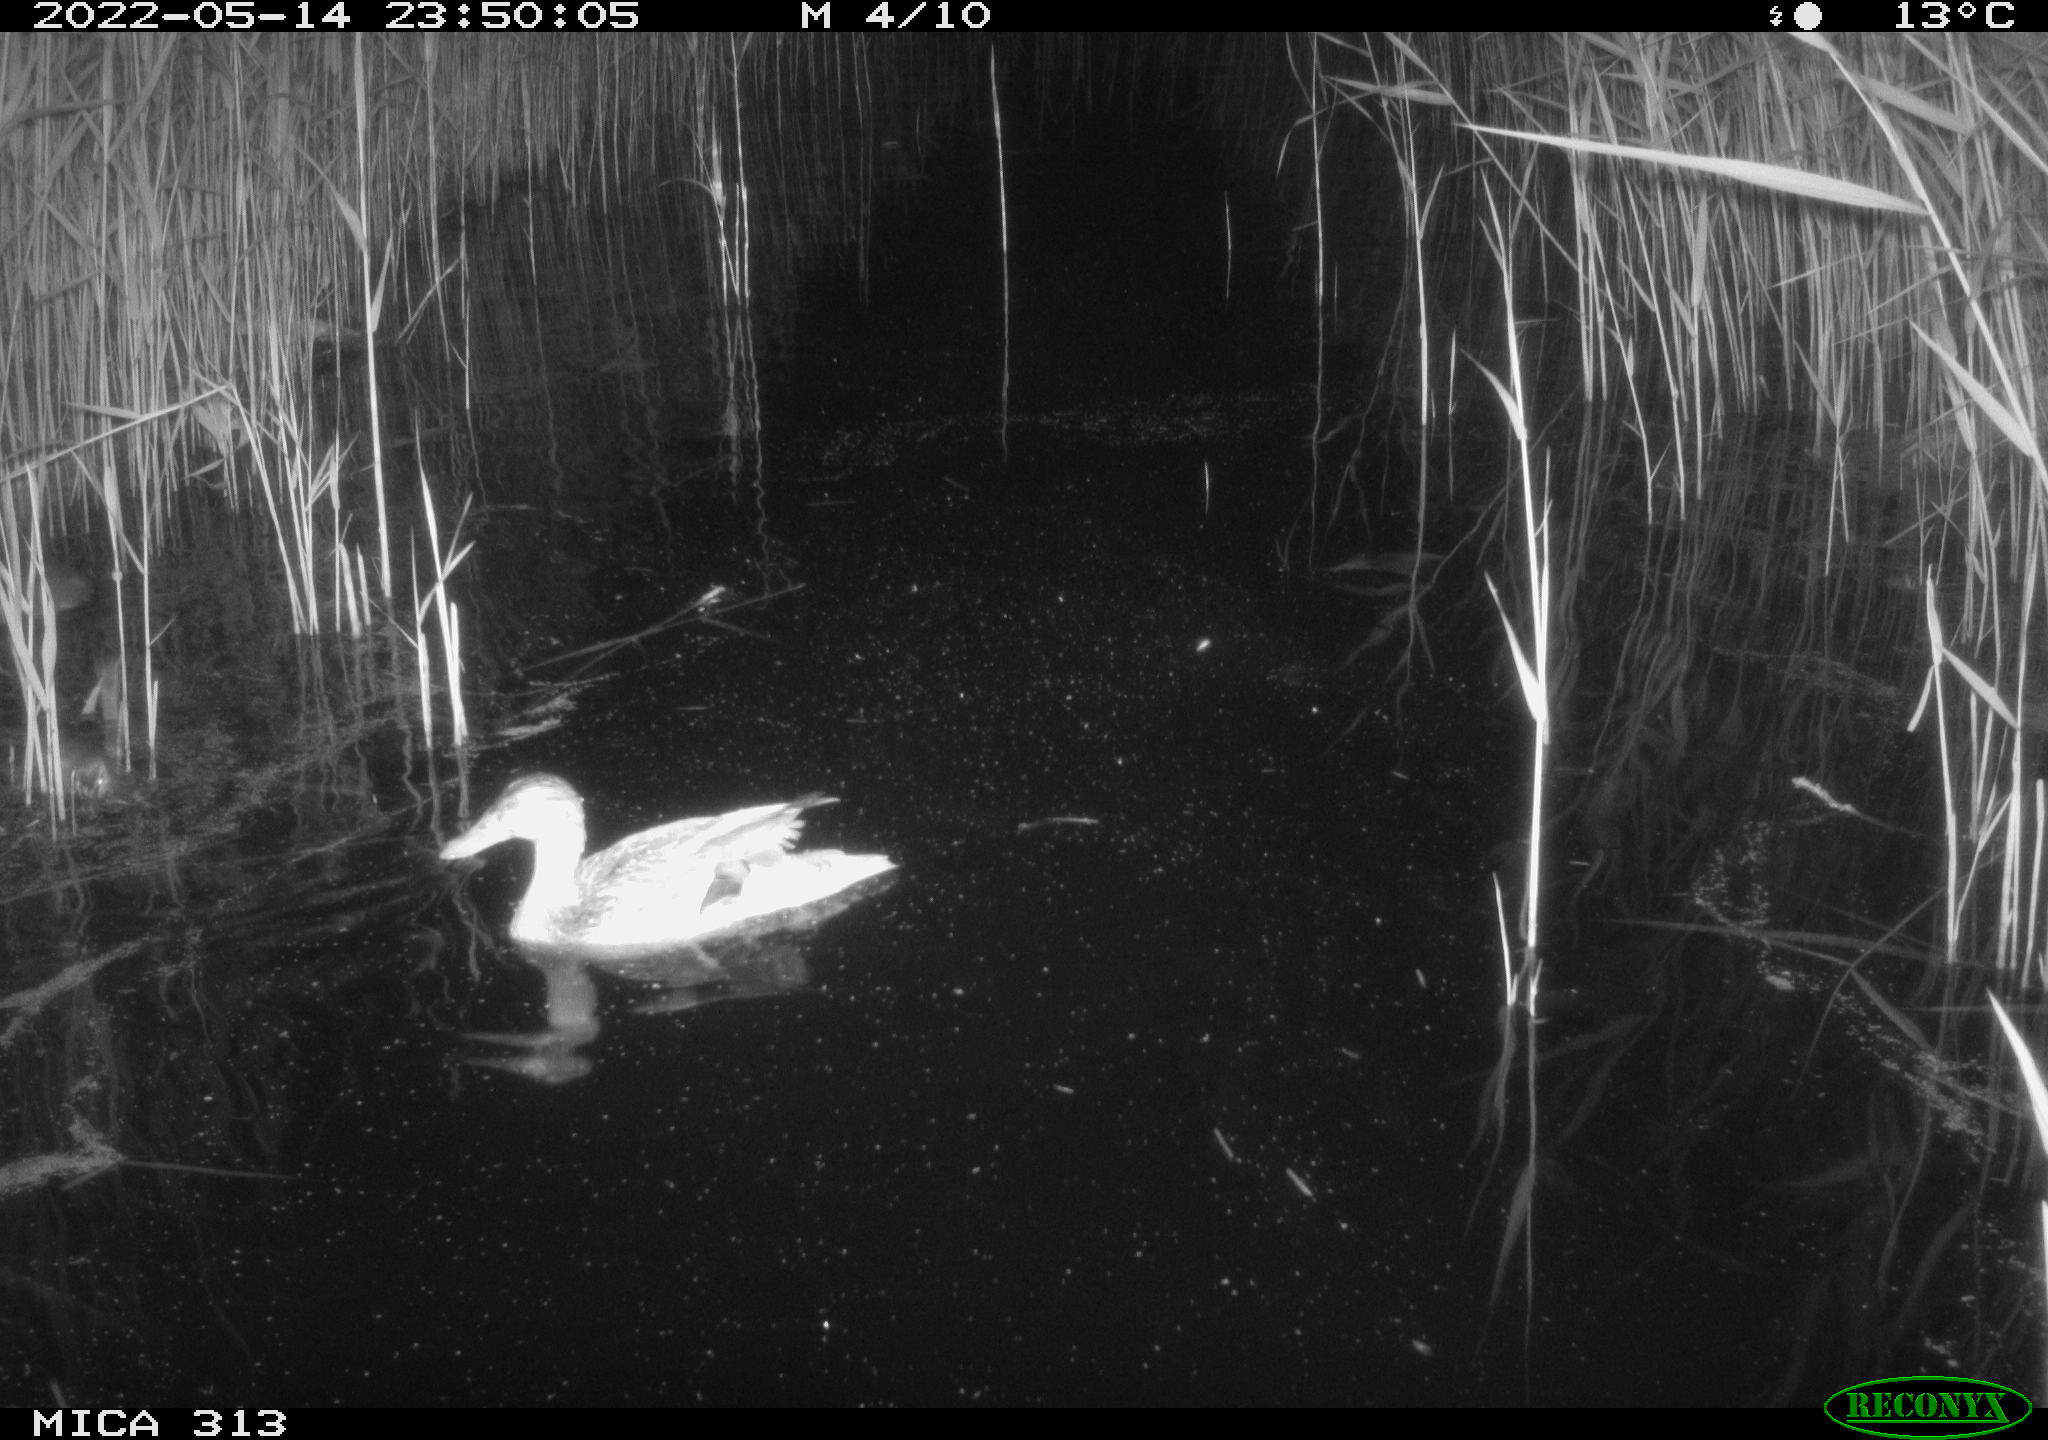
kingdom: Animalia
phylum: Chordata
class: Aves
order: Anseriformes
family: Anatidae
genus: Anas
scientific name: Anas platyrhynchos
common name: Mallard
